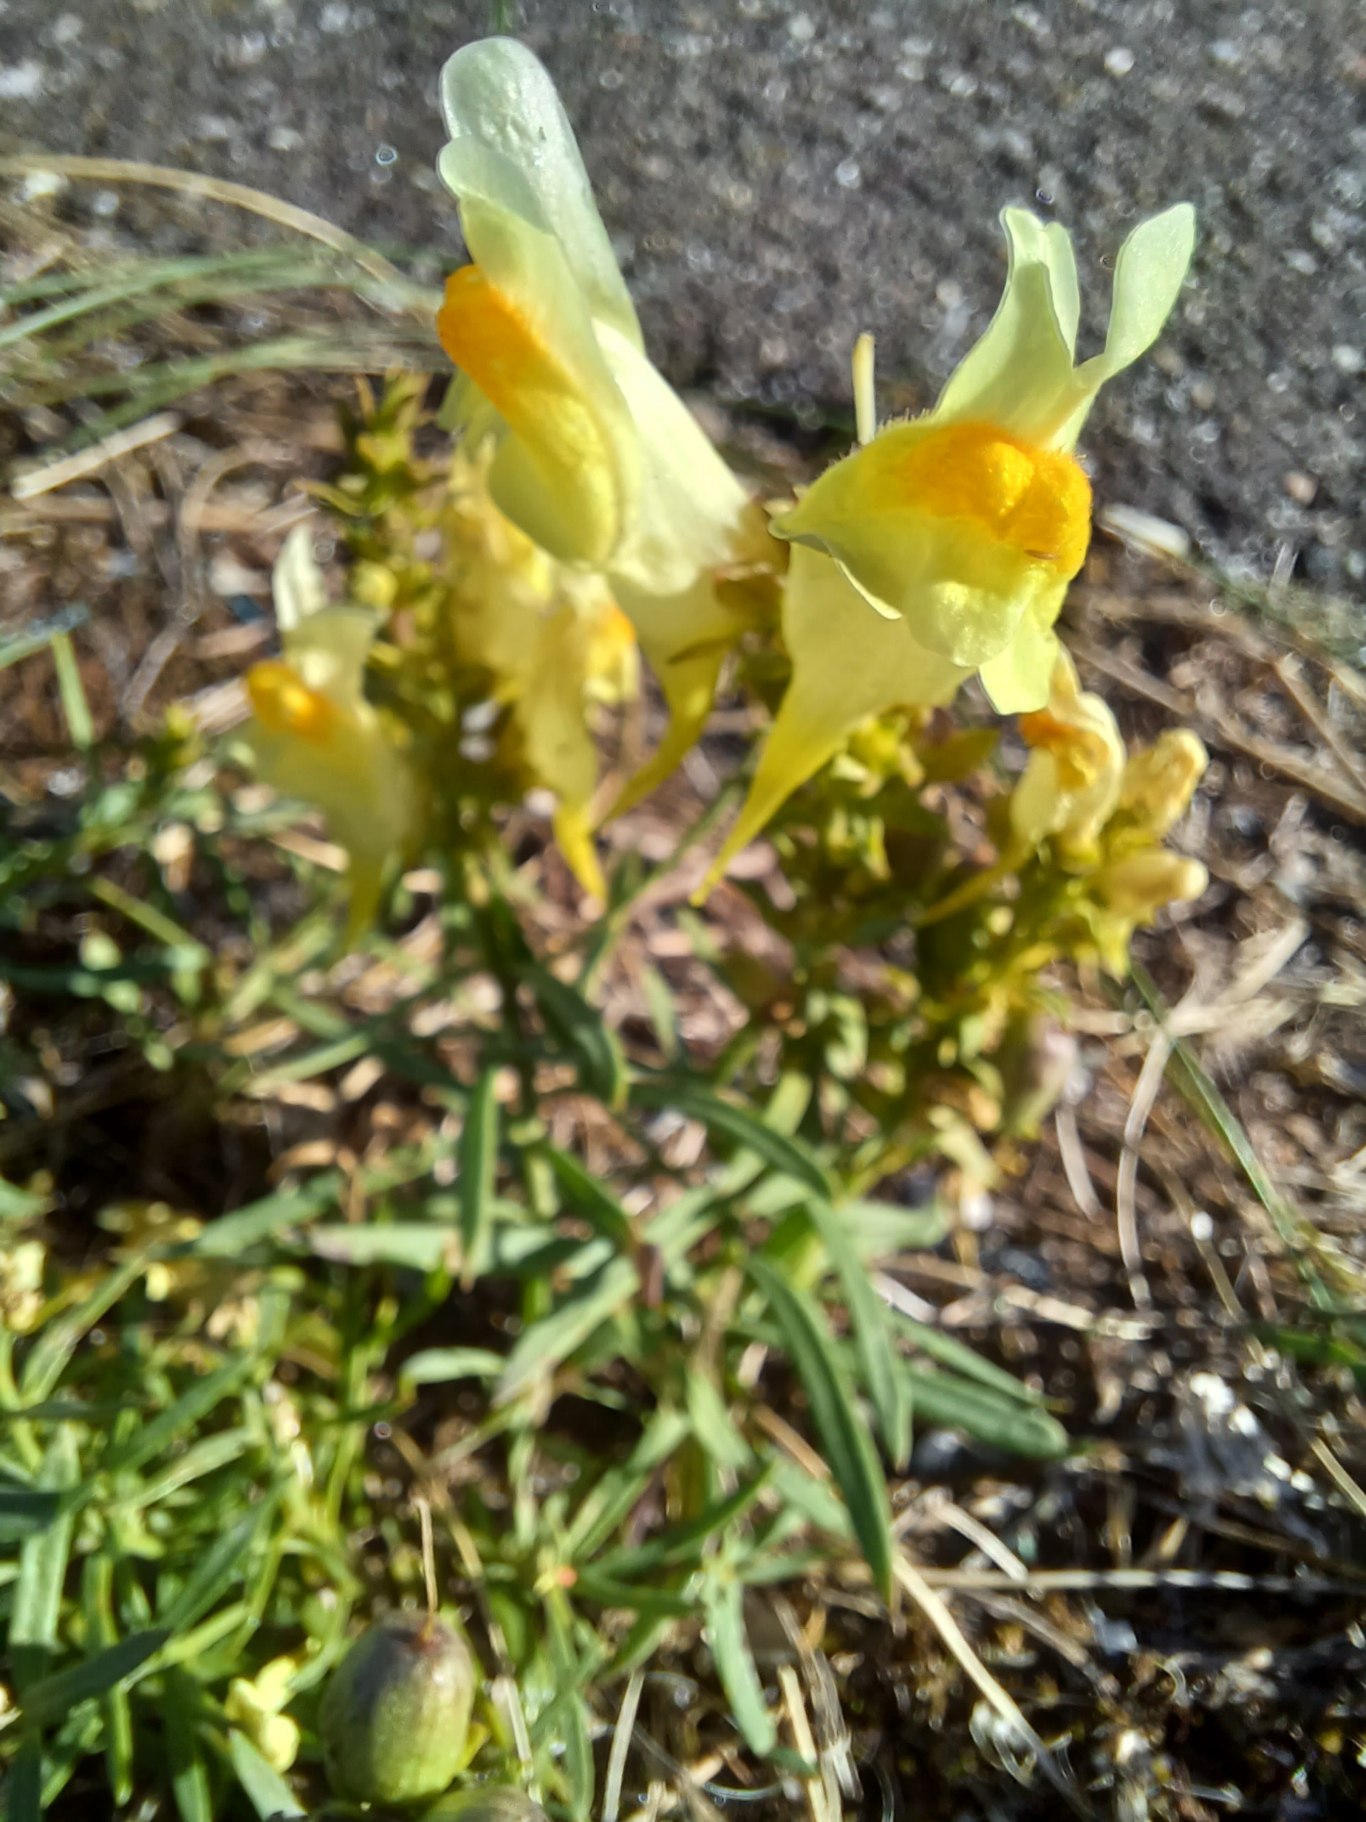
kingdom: Plantae
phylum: Tracheophyta
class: Magnoliopsida
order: Lamiales
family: Plantaginaceae
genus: Linaria
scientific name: Linaria vulgaris
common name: Almindelig torskemund
